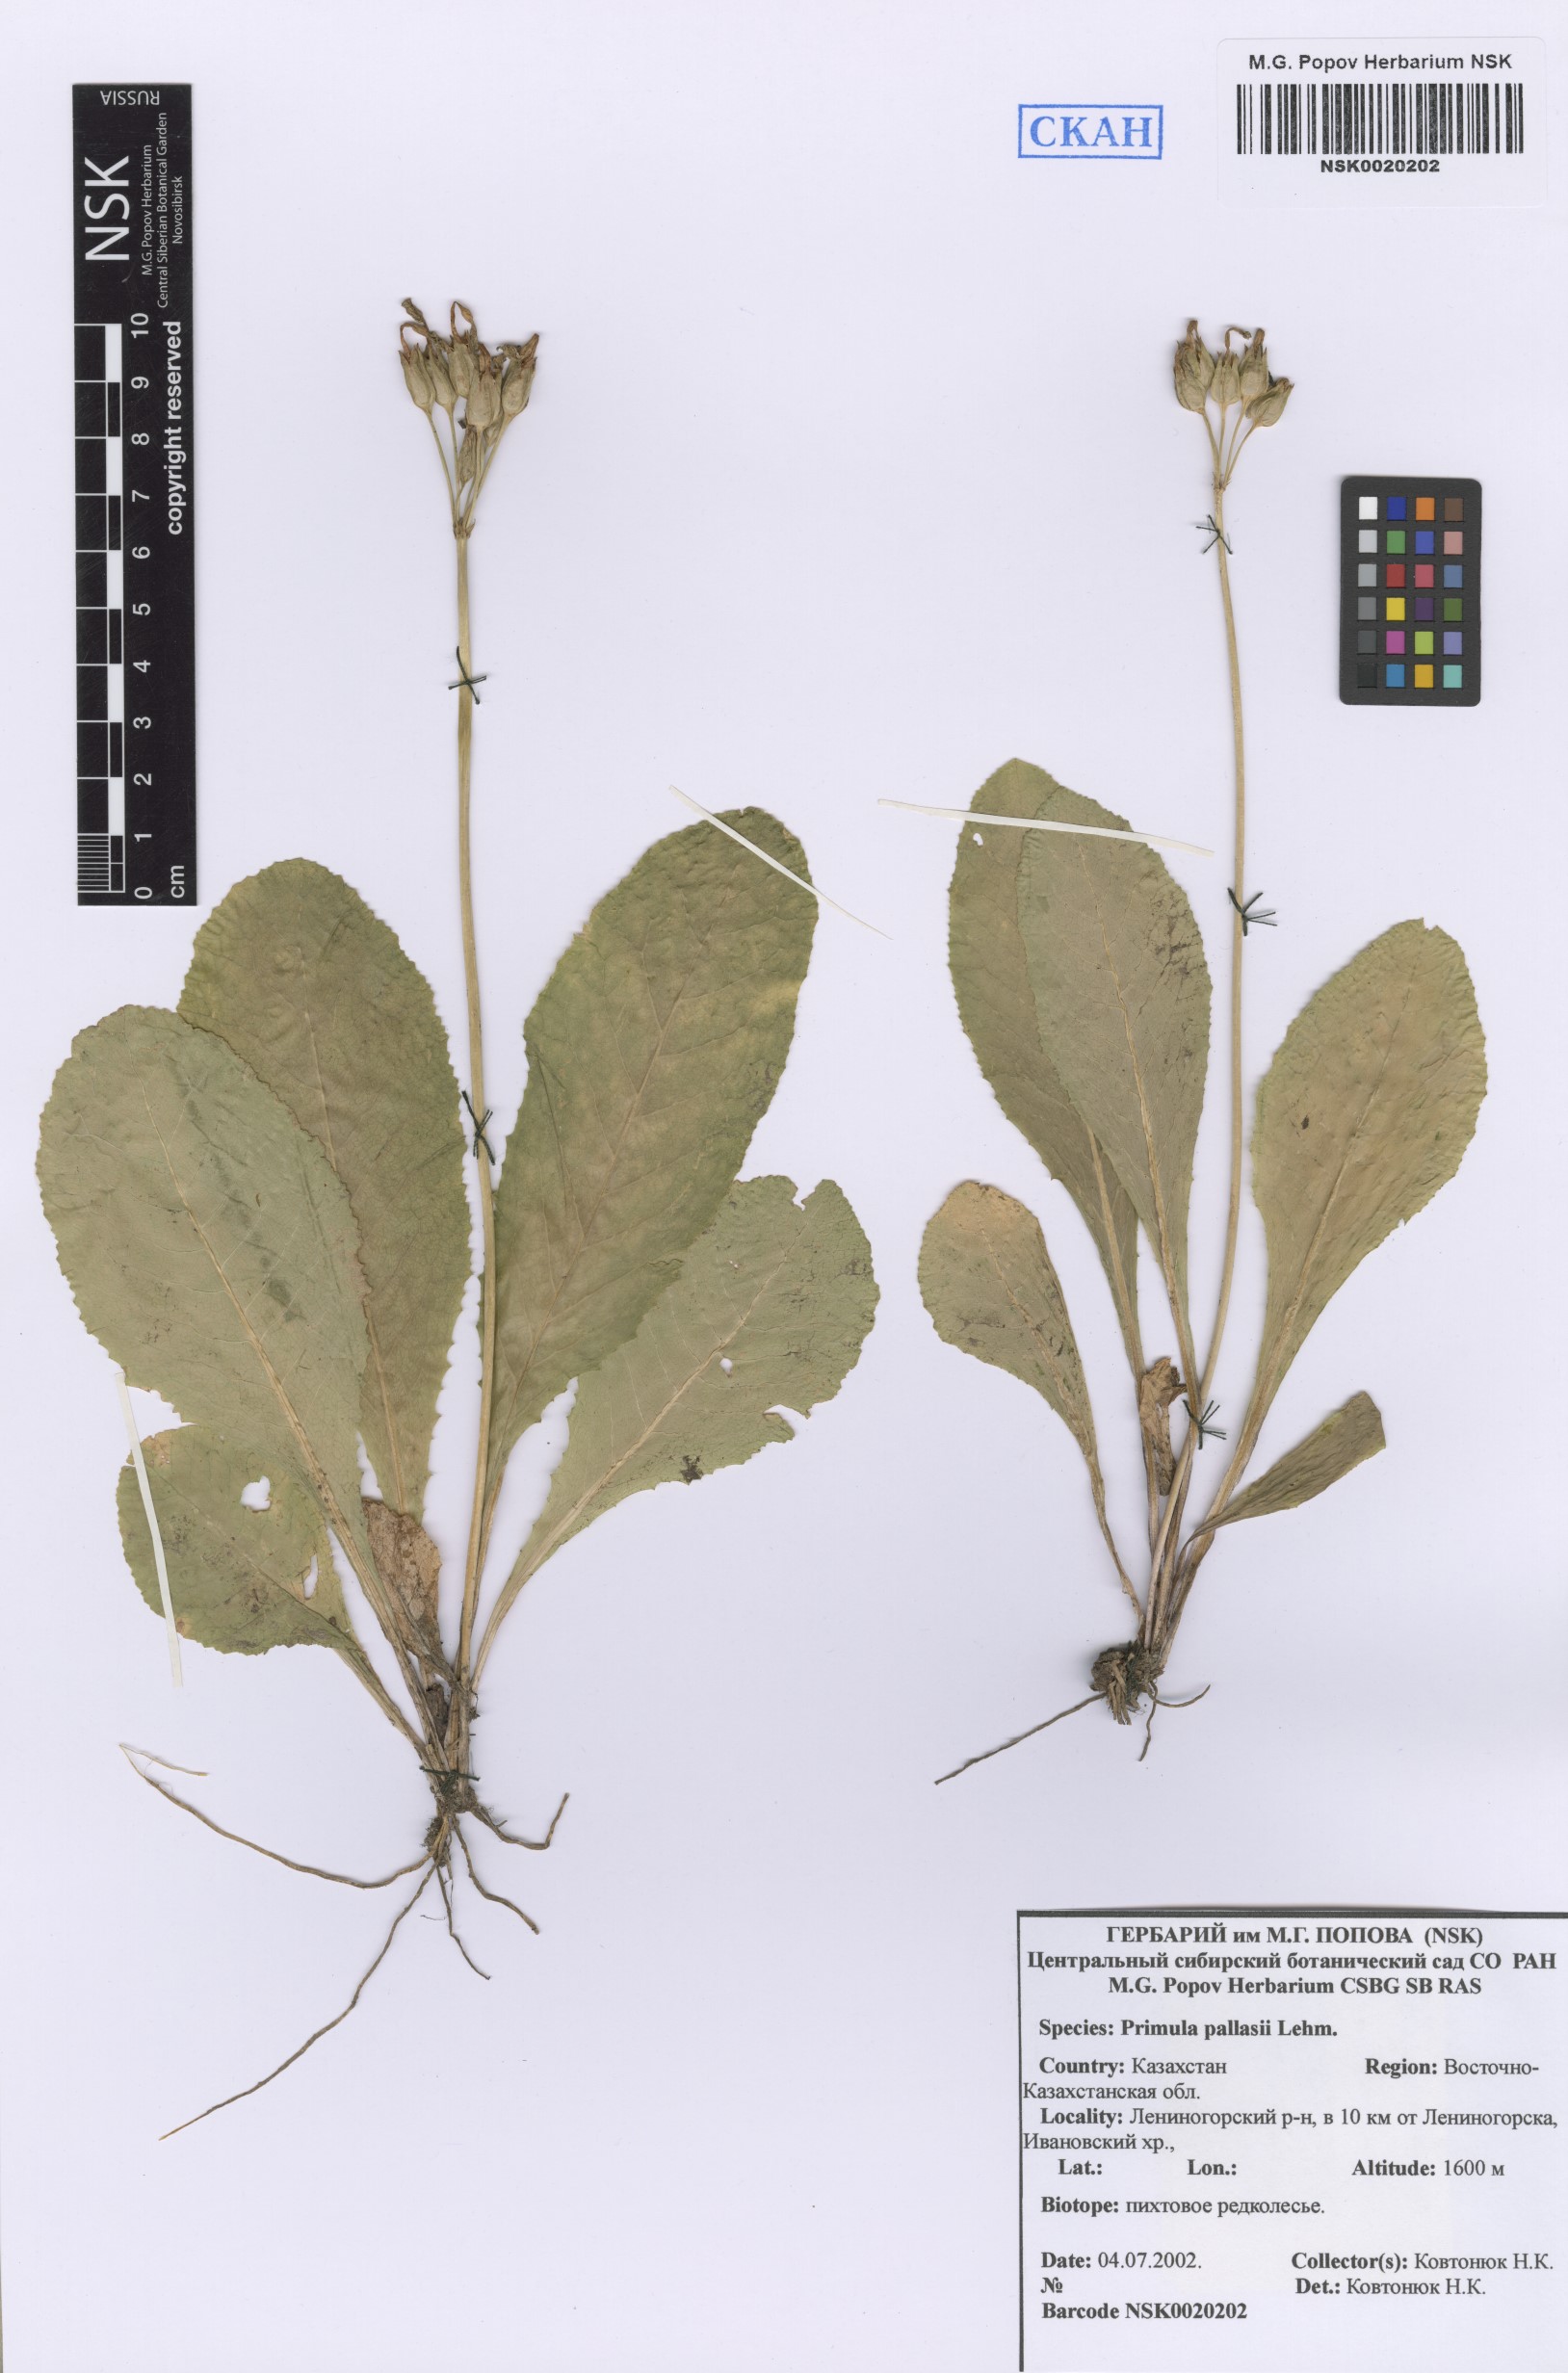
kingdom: Plantae
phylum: Tracheophyta
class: Magnoliopsida
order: Ericales
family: Primulaceae
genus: Primula
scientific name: Primula elatior
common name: Oxlip
